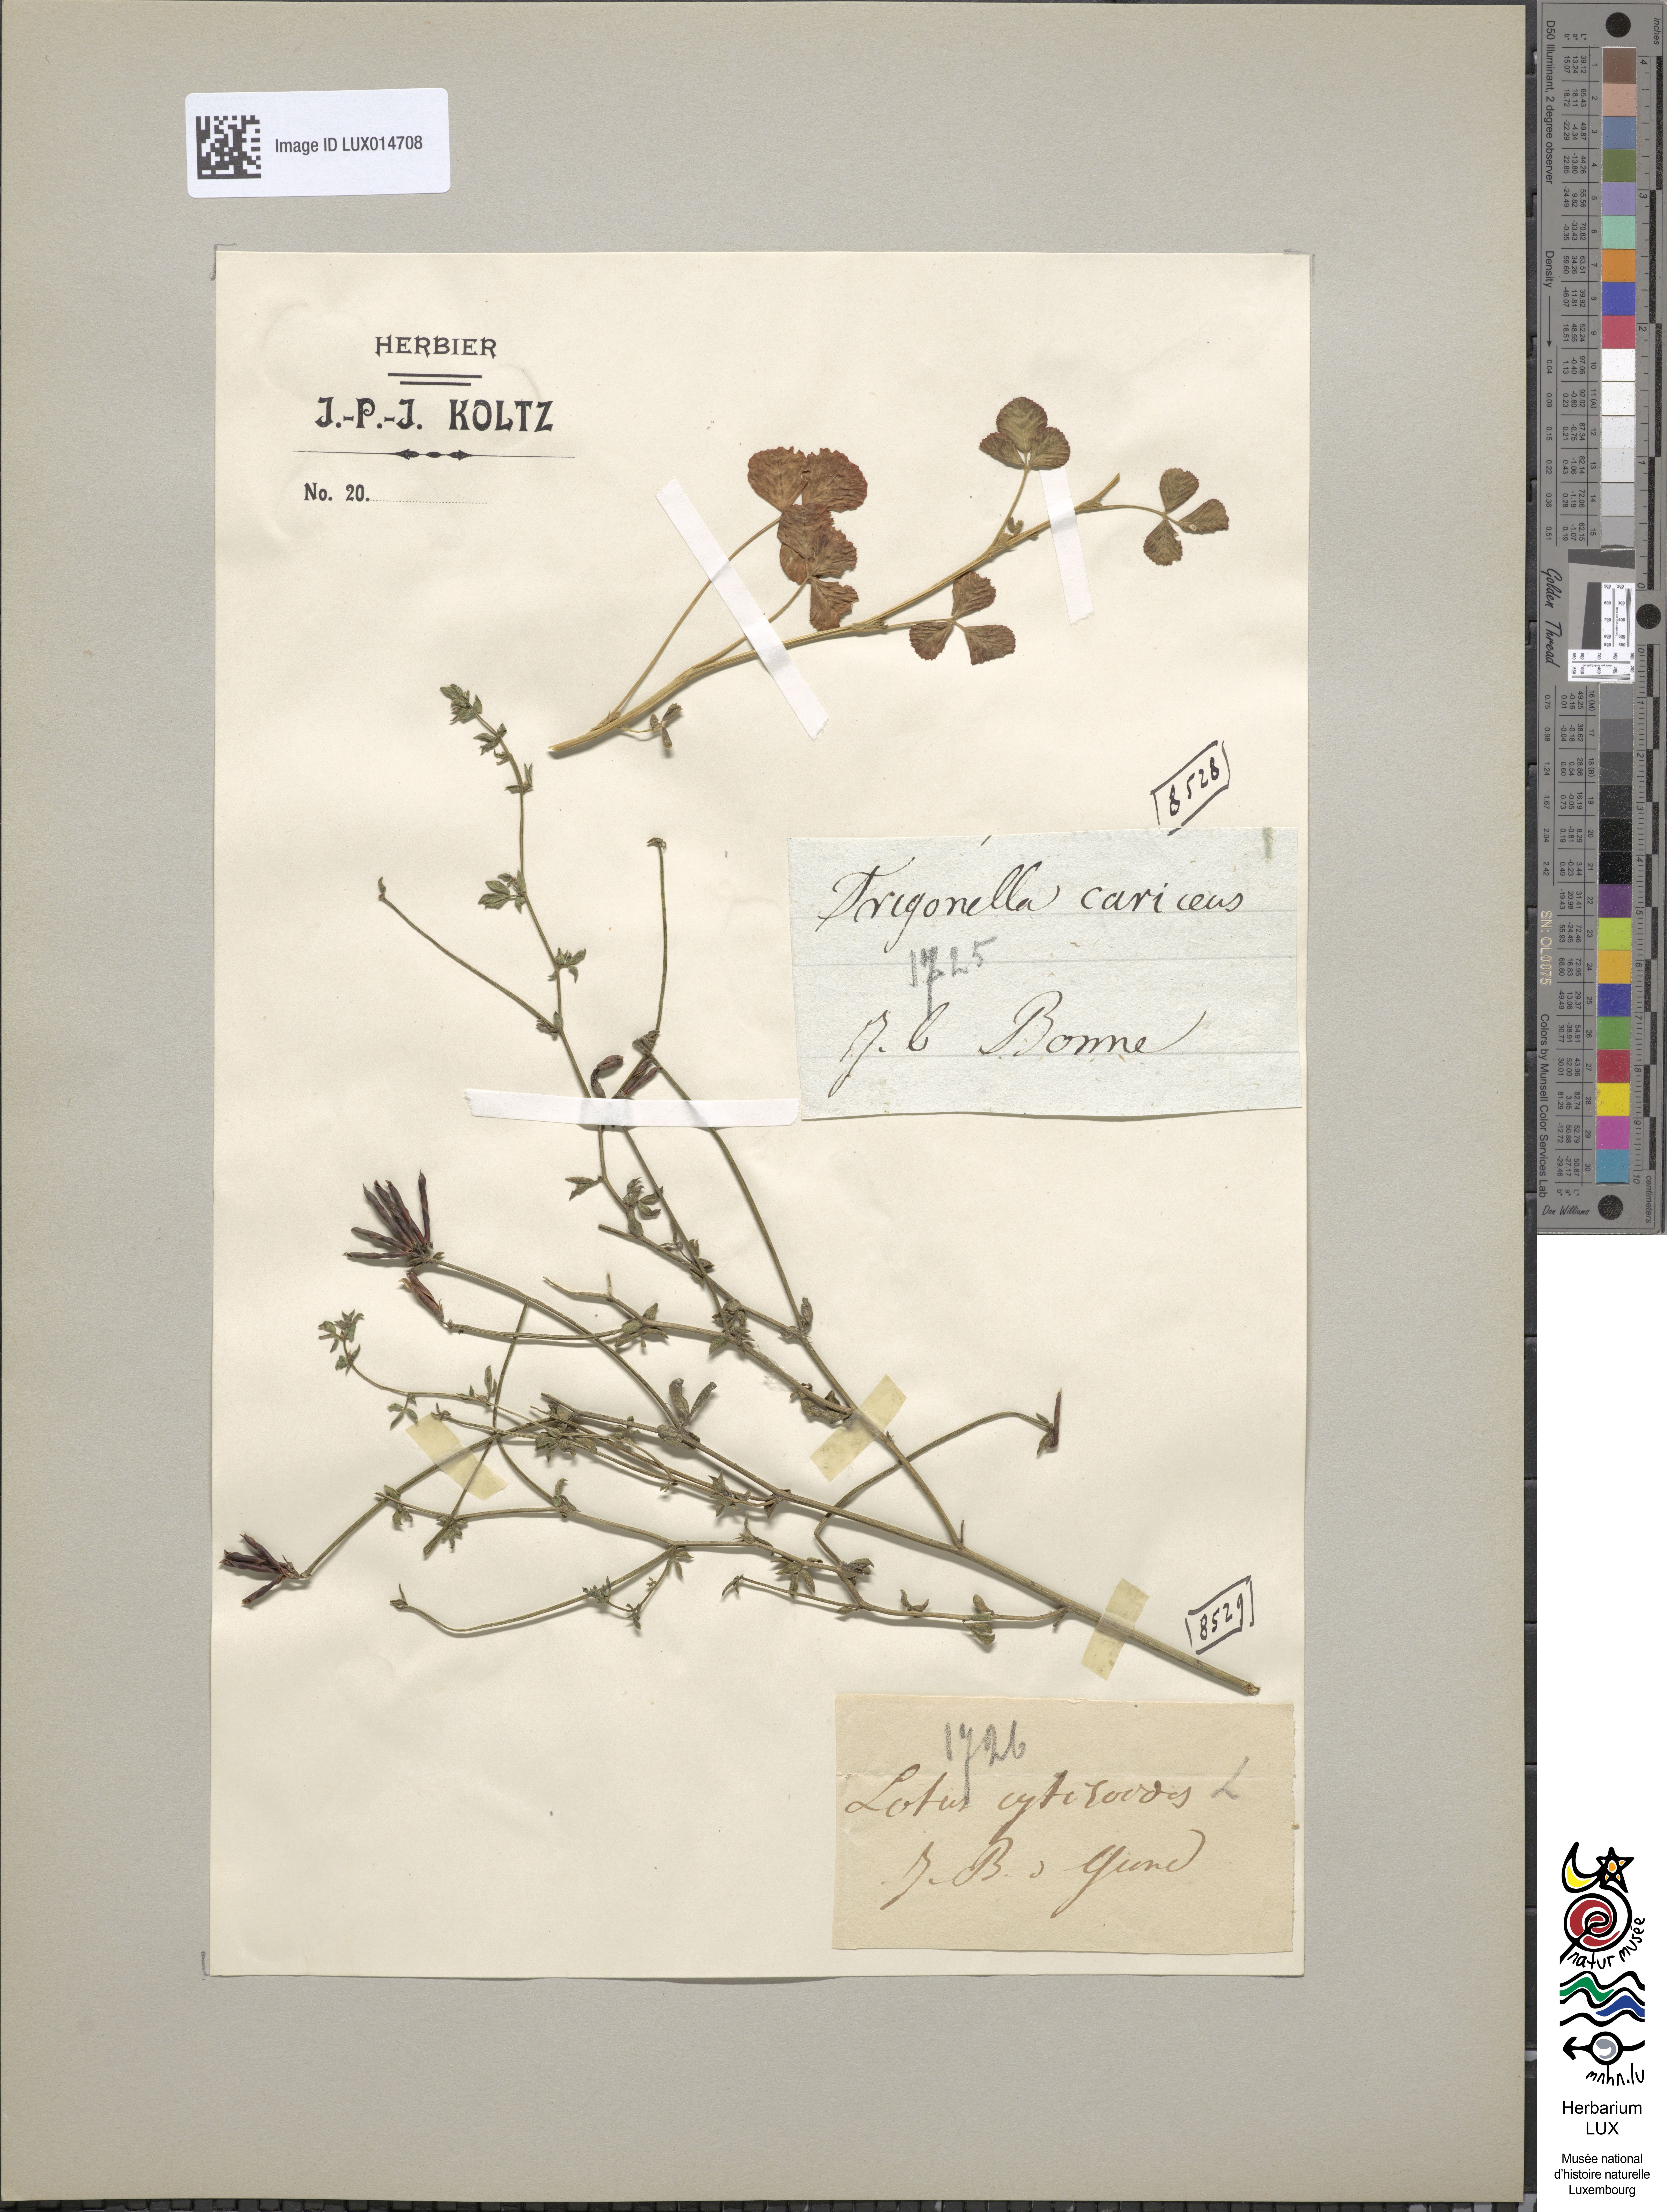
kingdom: Plantae
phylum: Tracheophyta
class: Magnoliopsida
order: Fabales
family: Fabaceae
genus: Lotus
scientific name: Lotus cytisoides
